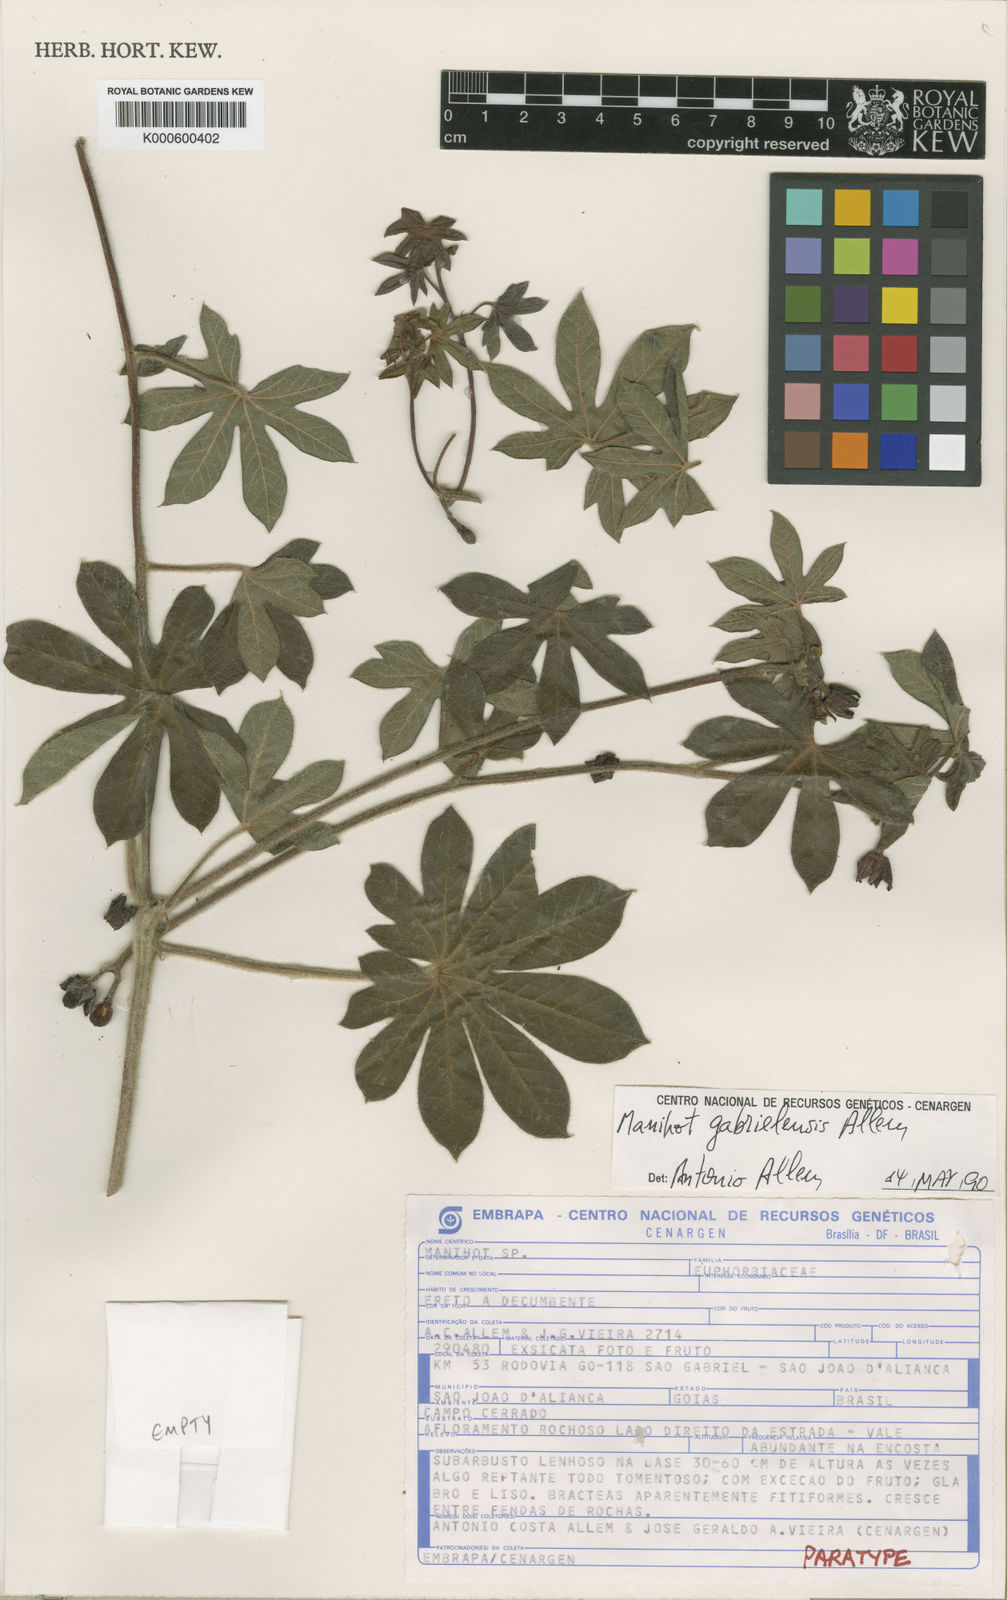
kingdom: Plantae
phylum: Tracheophyta
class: Magnoliopsida
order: Malpighiales
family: Euphorbiaceae
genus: Manihot
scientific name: Manihot
